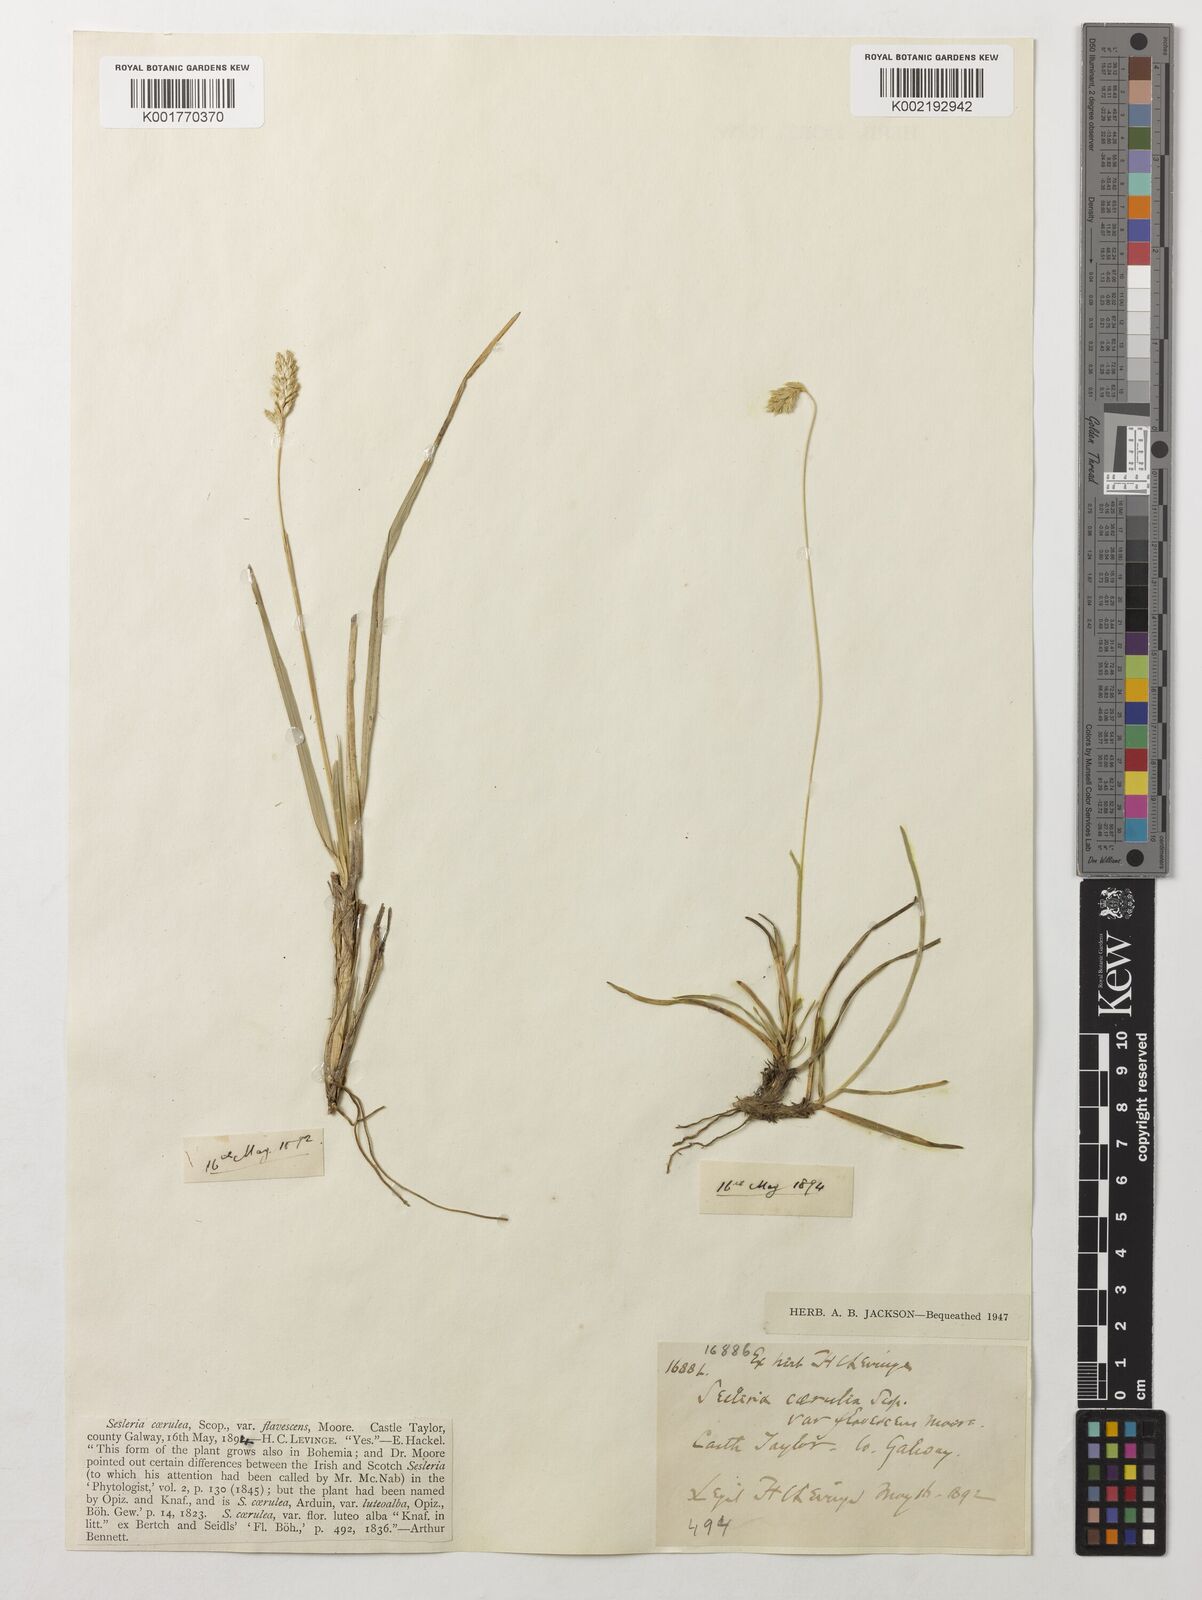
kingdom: Plantae
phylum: Tracheophyta
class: Liliopsida
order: Poales
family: Poaceae
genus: Sesleria
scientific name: Sesleria caerulea
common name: Blue moor-grass
